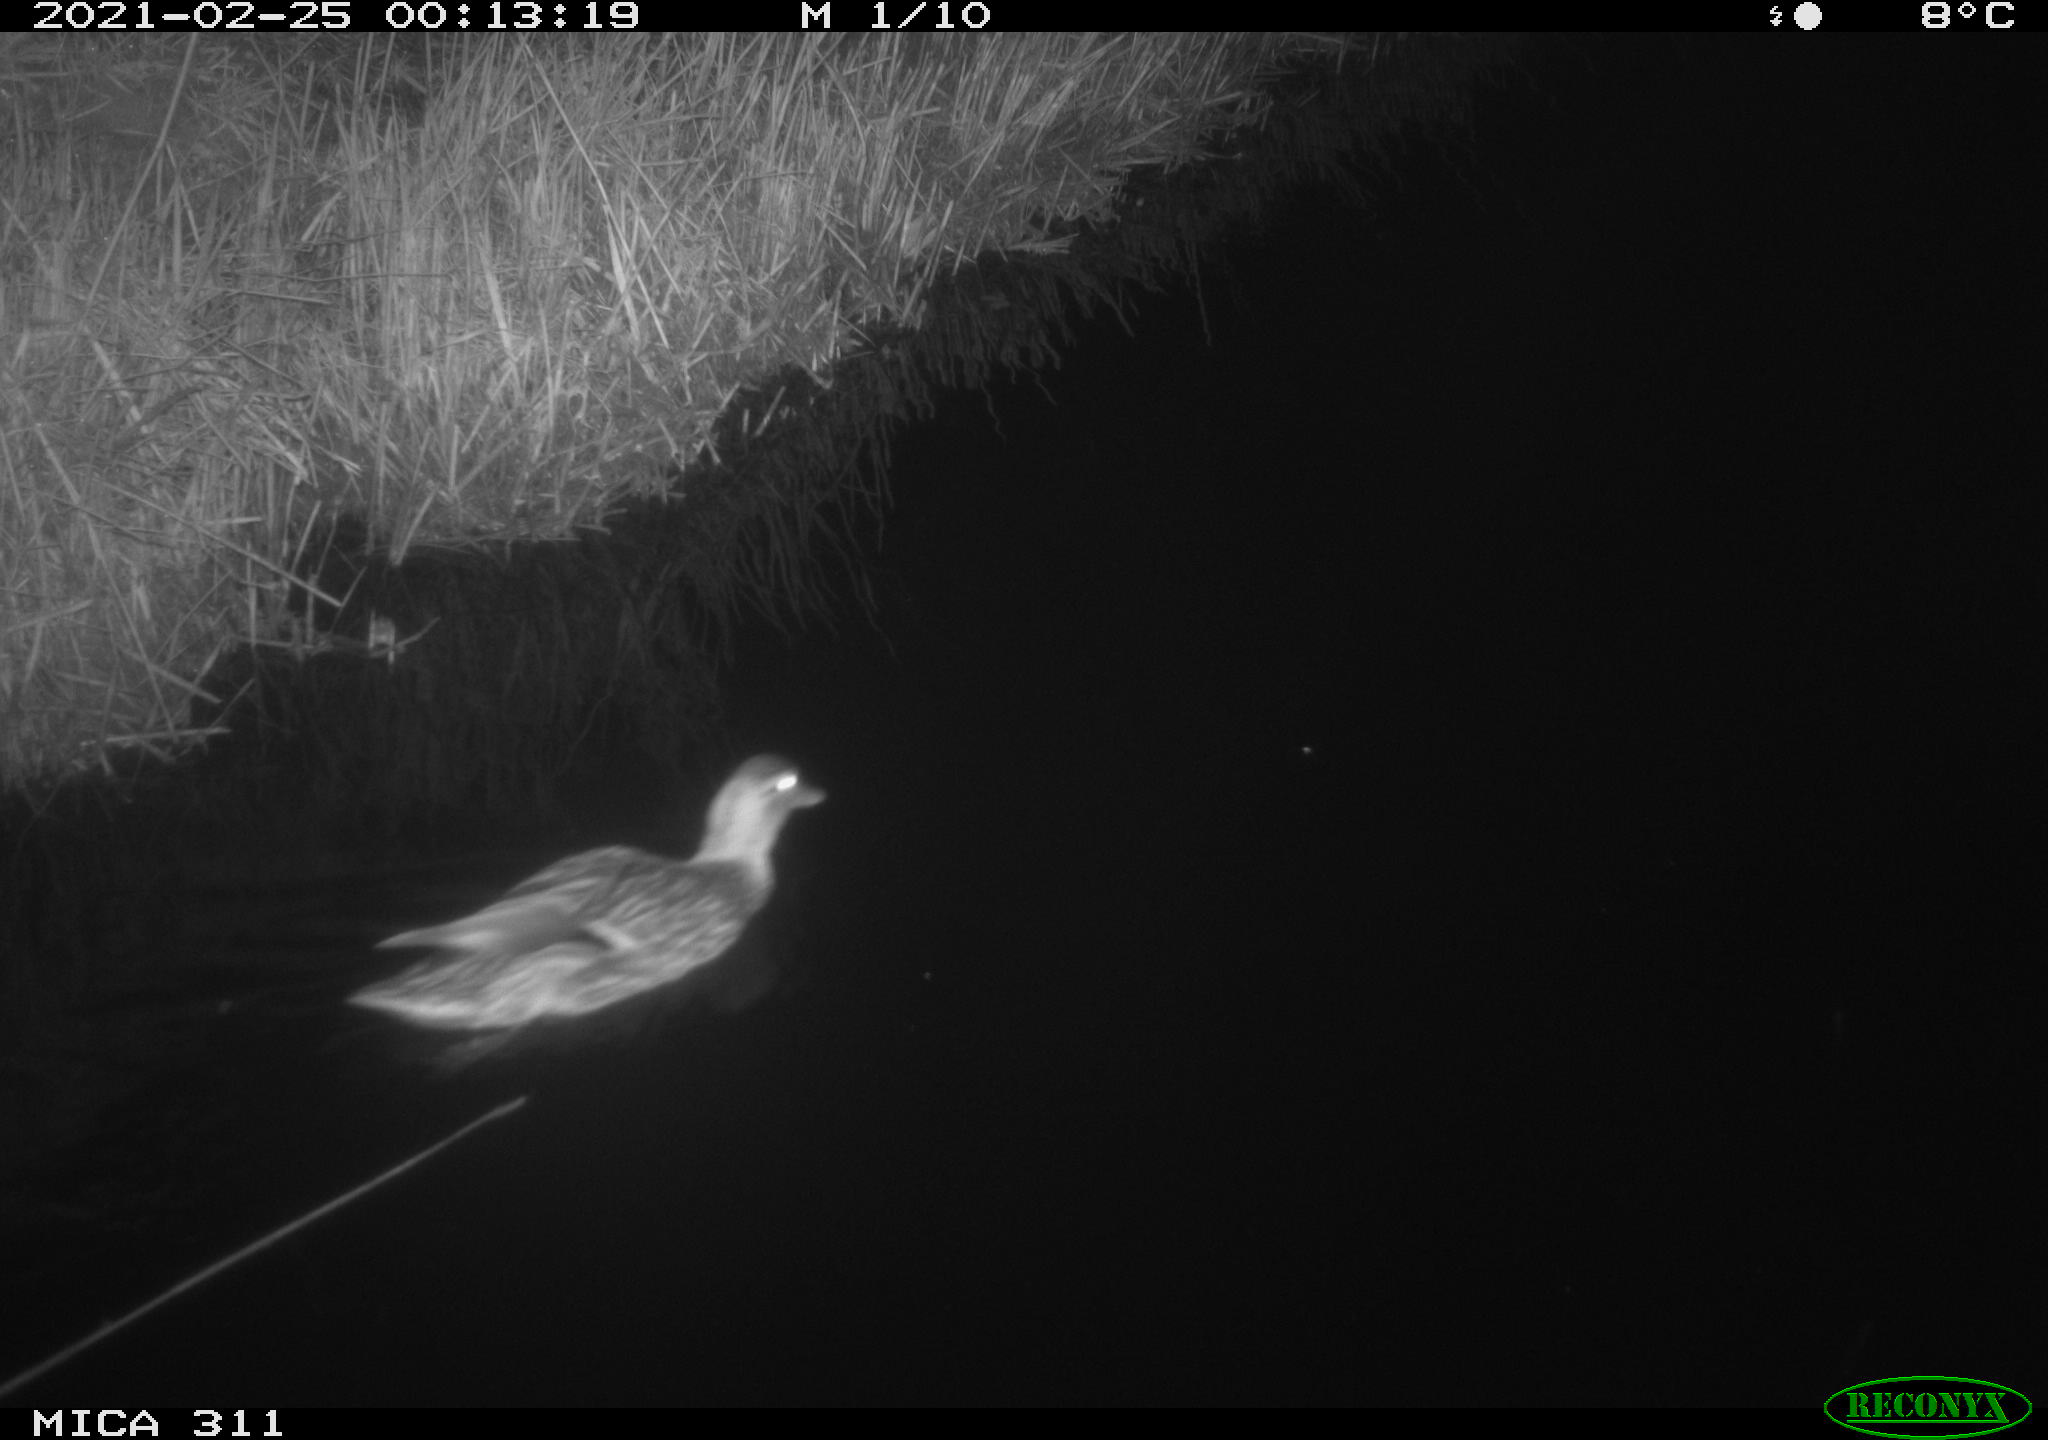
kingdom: Animalia
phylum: Chordata
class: Aves
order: Anseriformes
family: Anatidae
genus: Anas
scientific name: Anas
